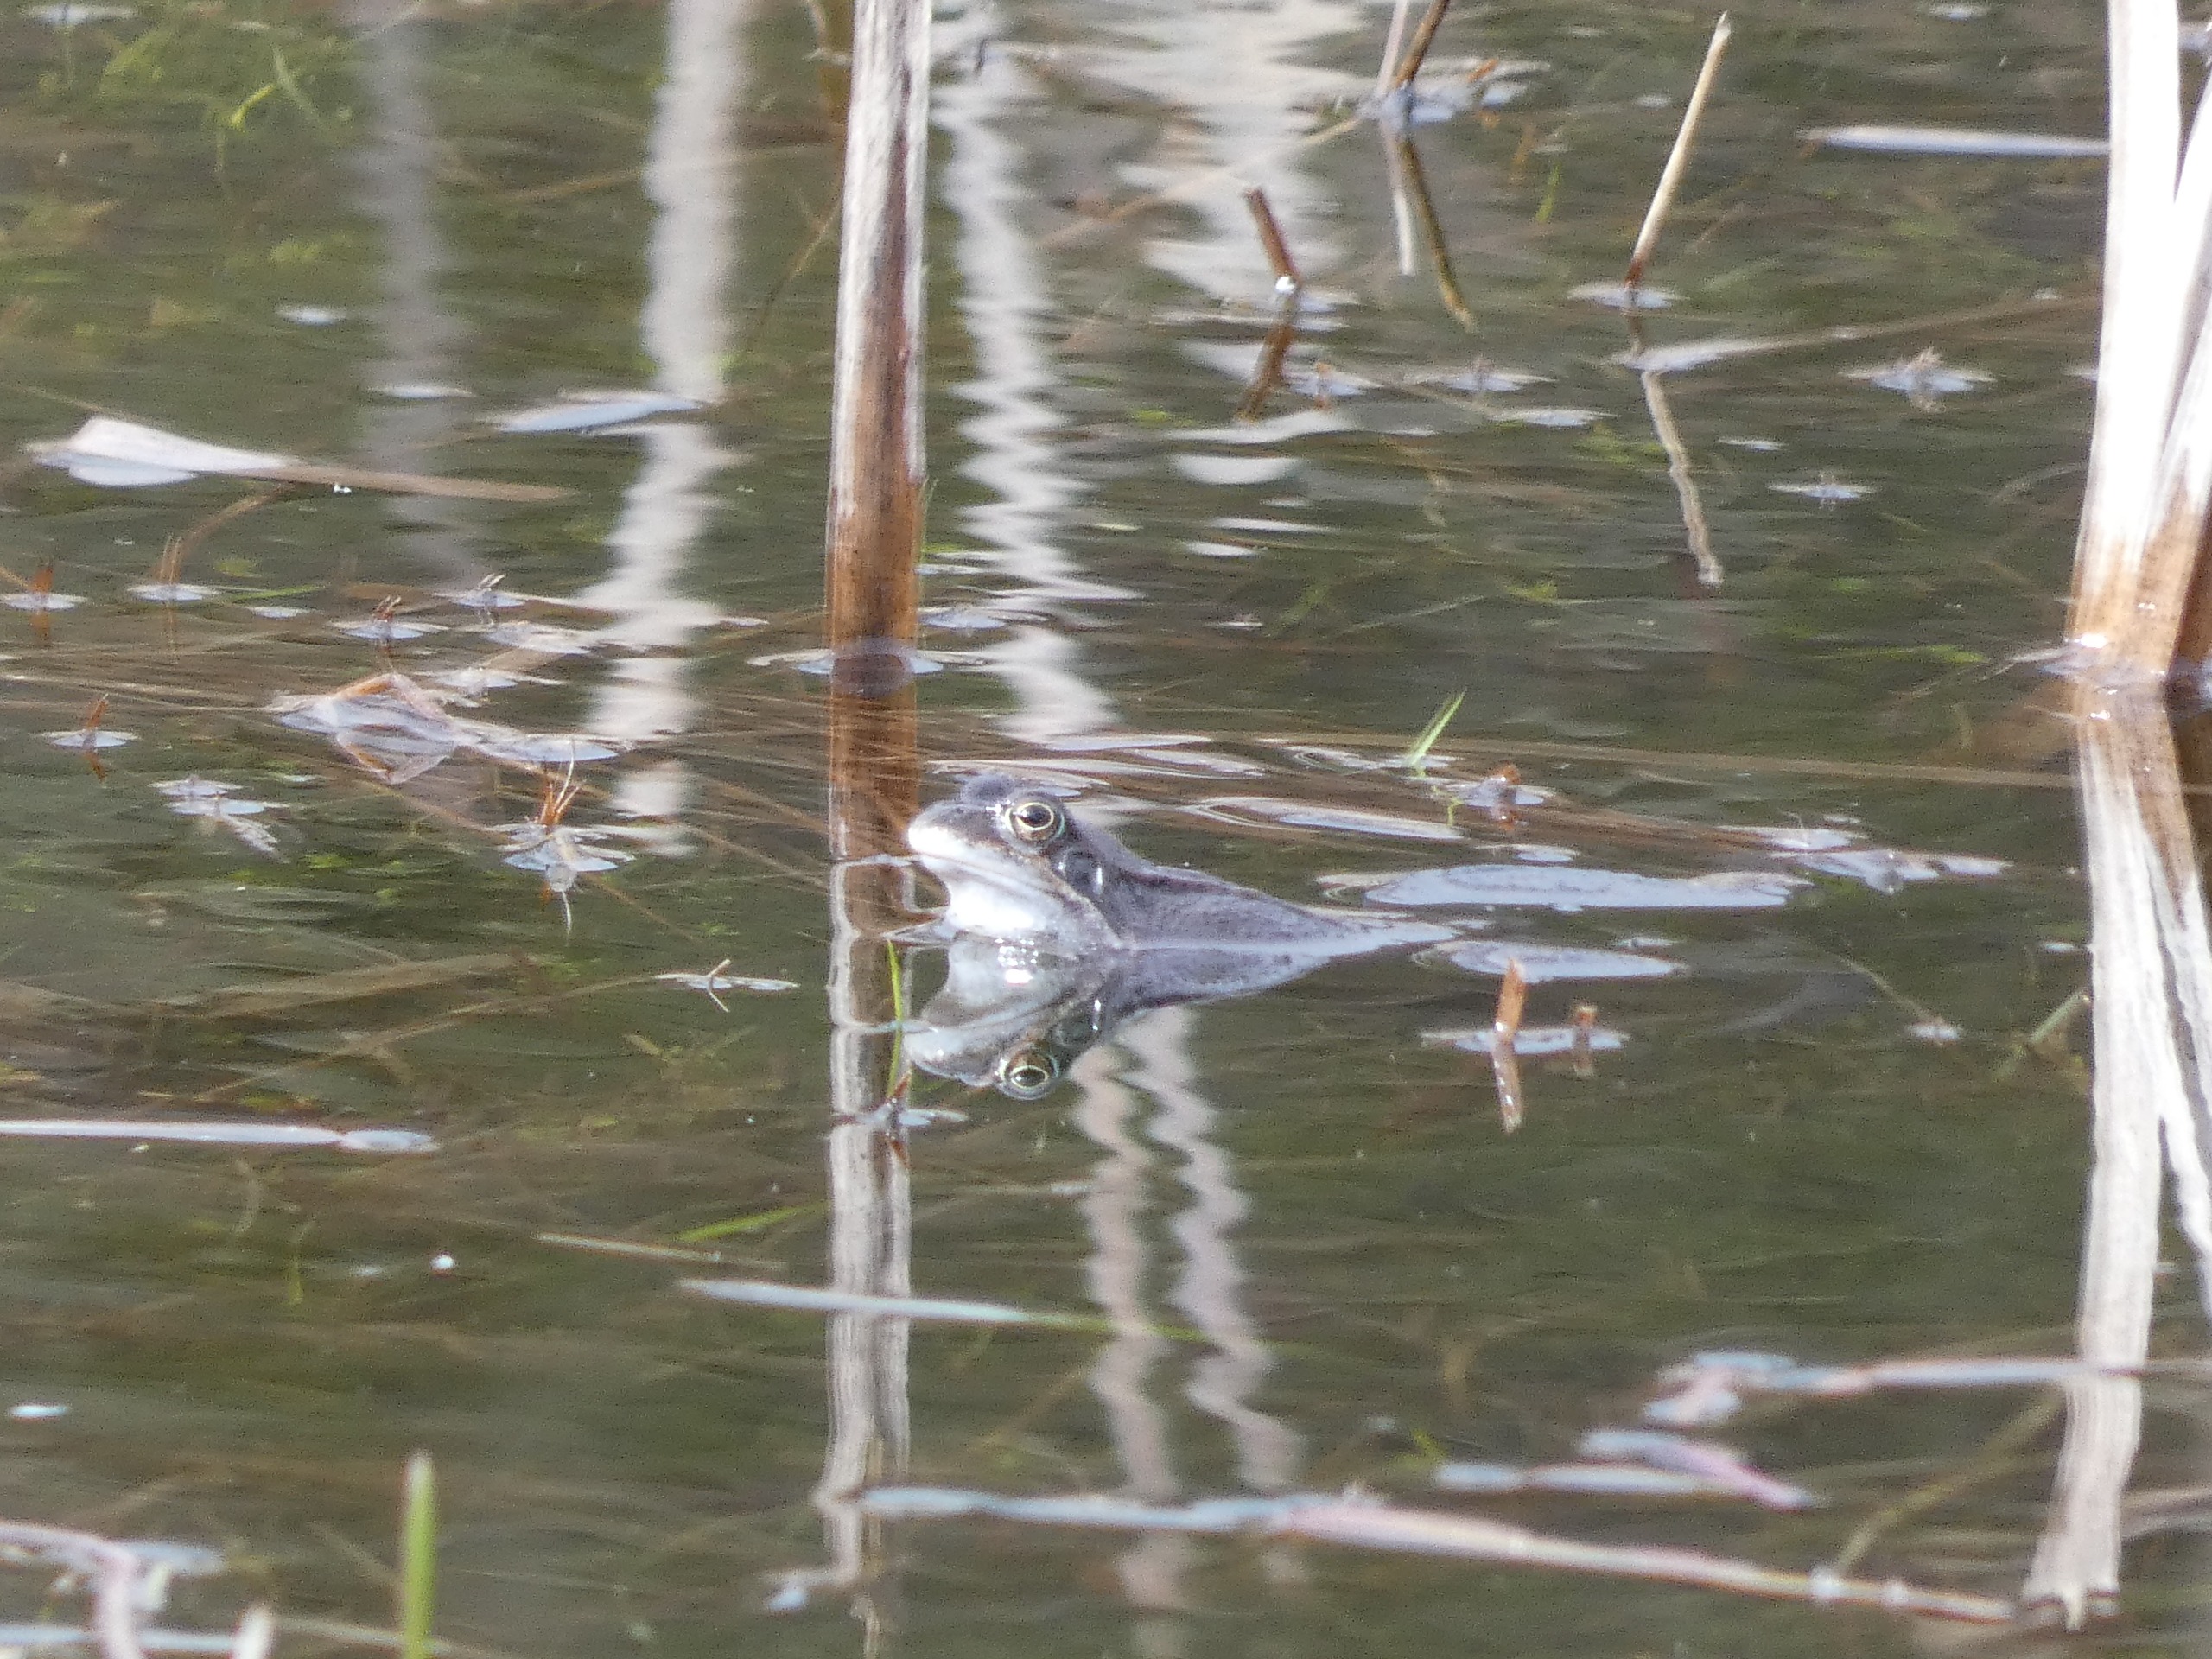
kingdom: Animalia
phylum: Chordata
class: Amphibia
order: Anura
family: Ranidae
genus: Rana
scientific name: Rana arvalis
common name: Spidssnudet frø
